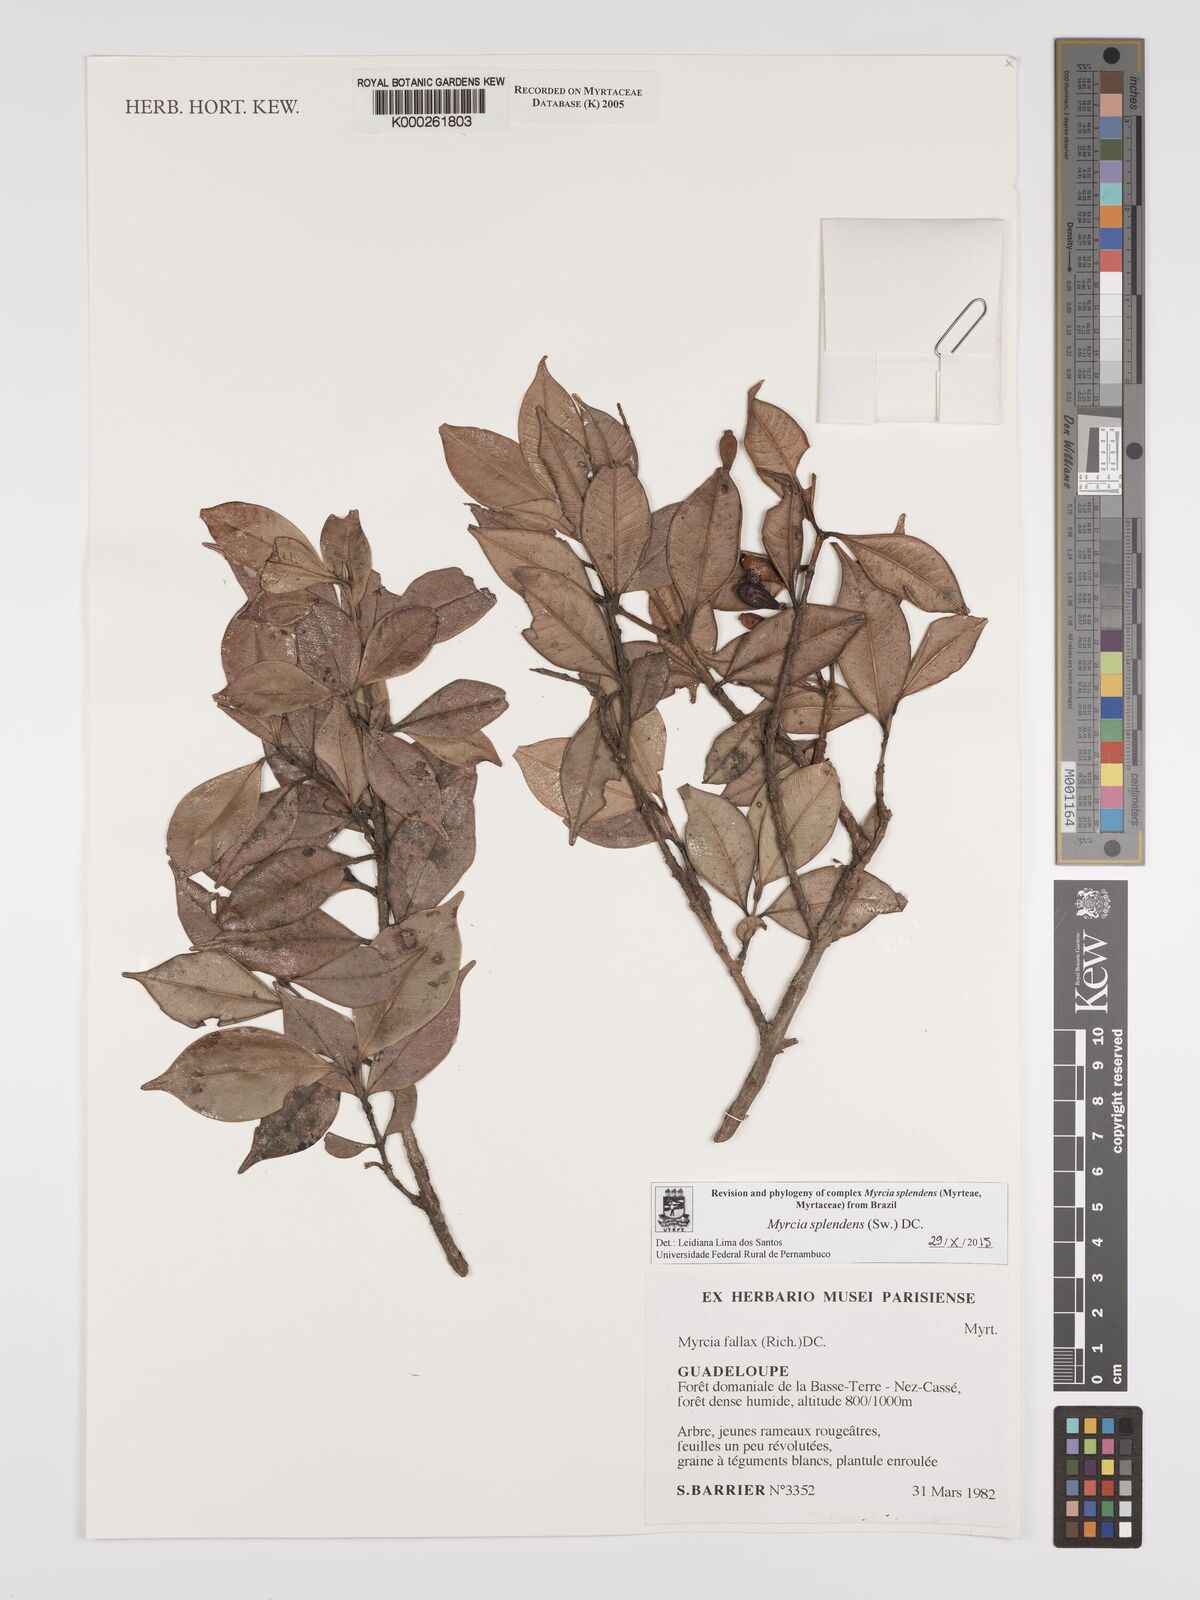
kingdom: Plantae
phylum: Tracheophyta
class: Magnoliopsida
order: Myrtales
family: Myrtaceae
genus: Myrcia
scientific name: Myrcia splendens
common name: Surinam cherry
